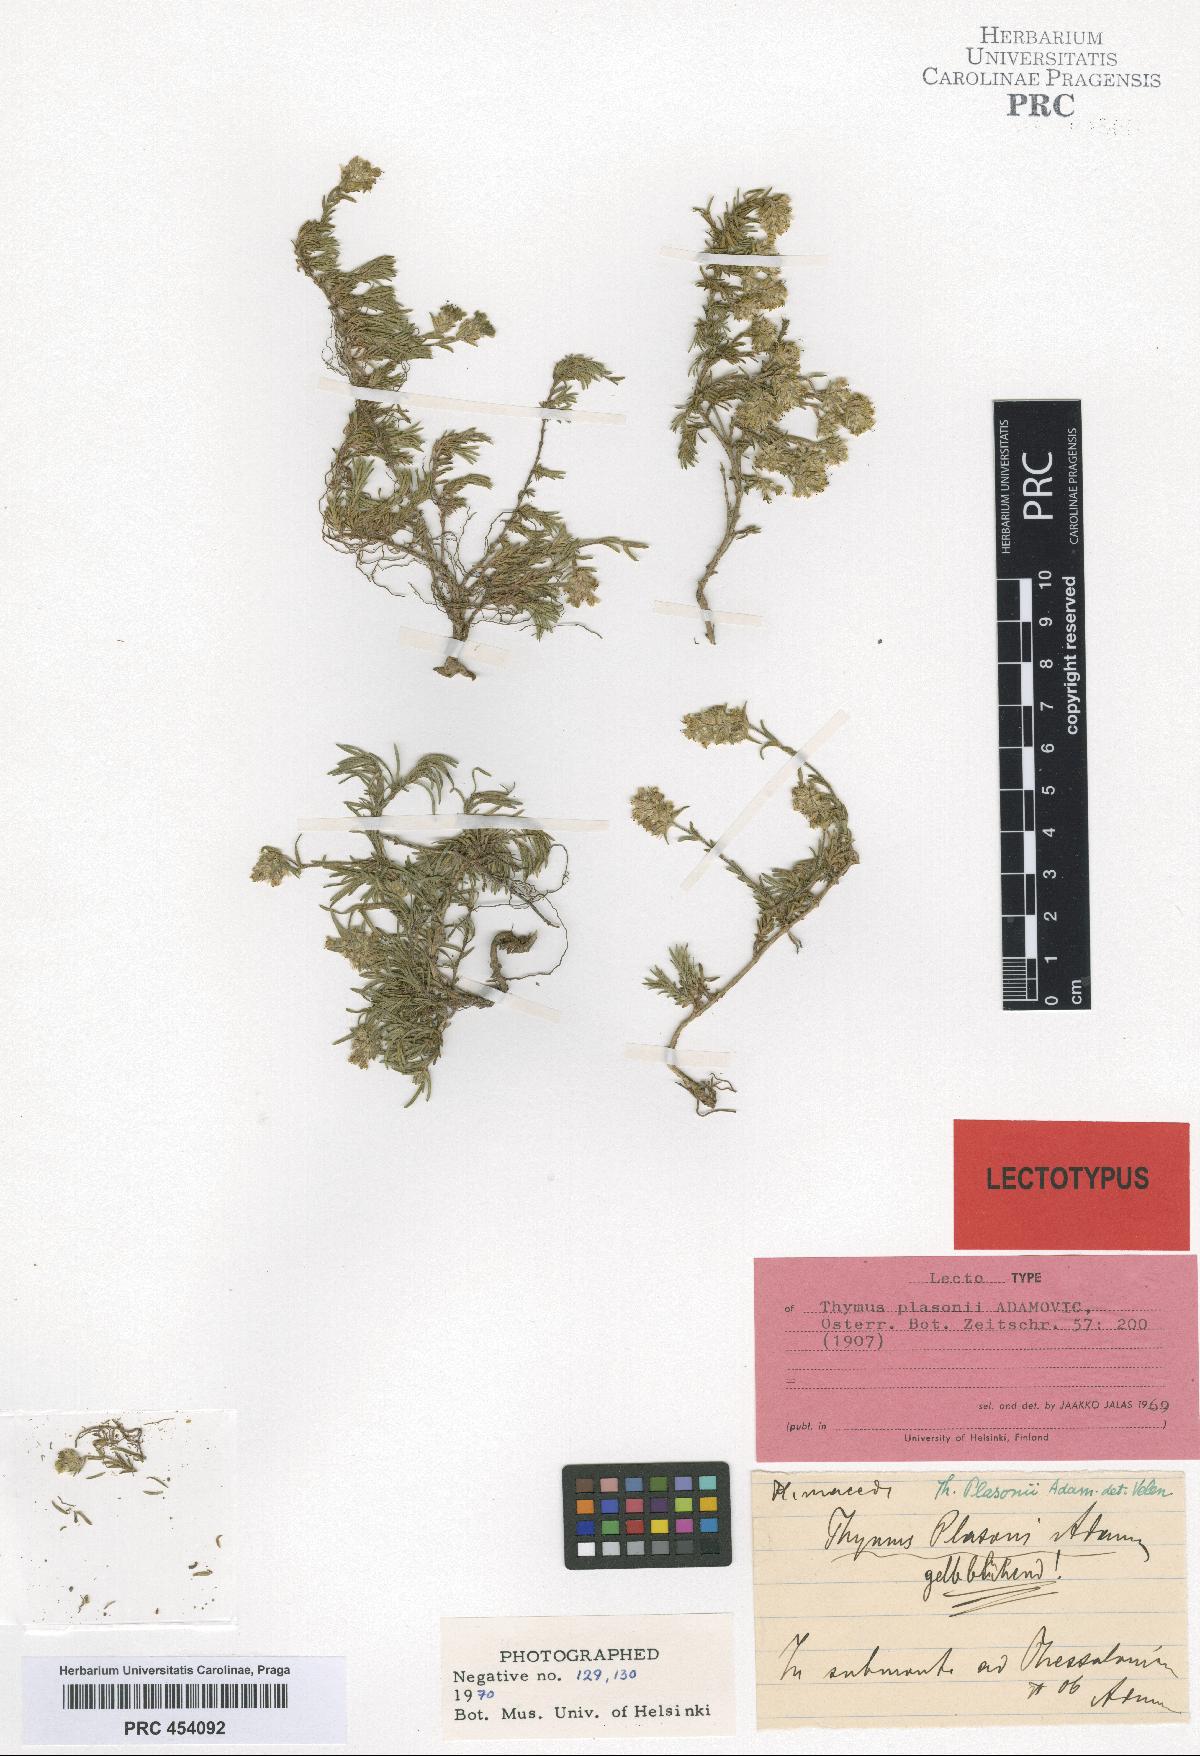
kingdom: Plantae
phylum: Tracheophyta
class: Magnoliopsida
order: Lamiales
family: Lamiaceae
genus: Thymus
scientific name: Thymus plasonii
